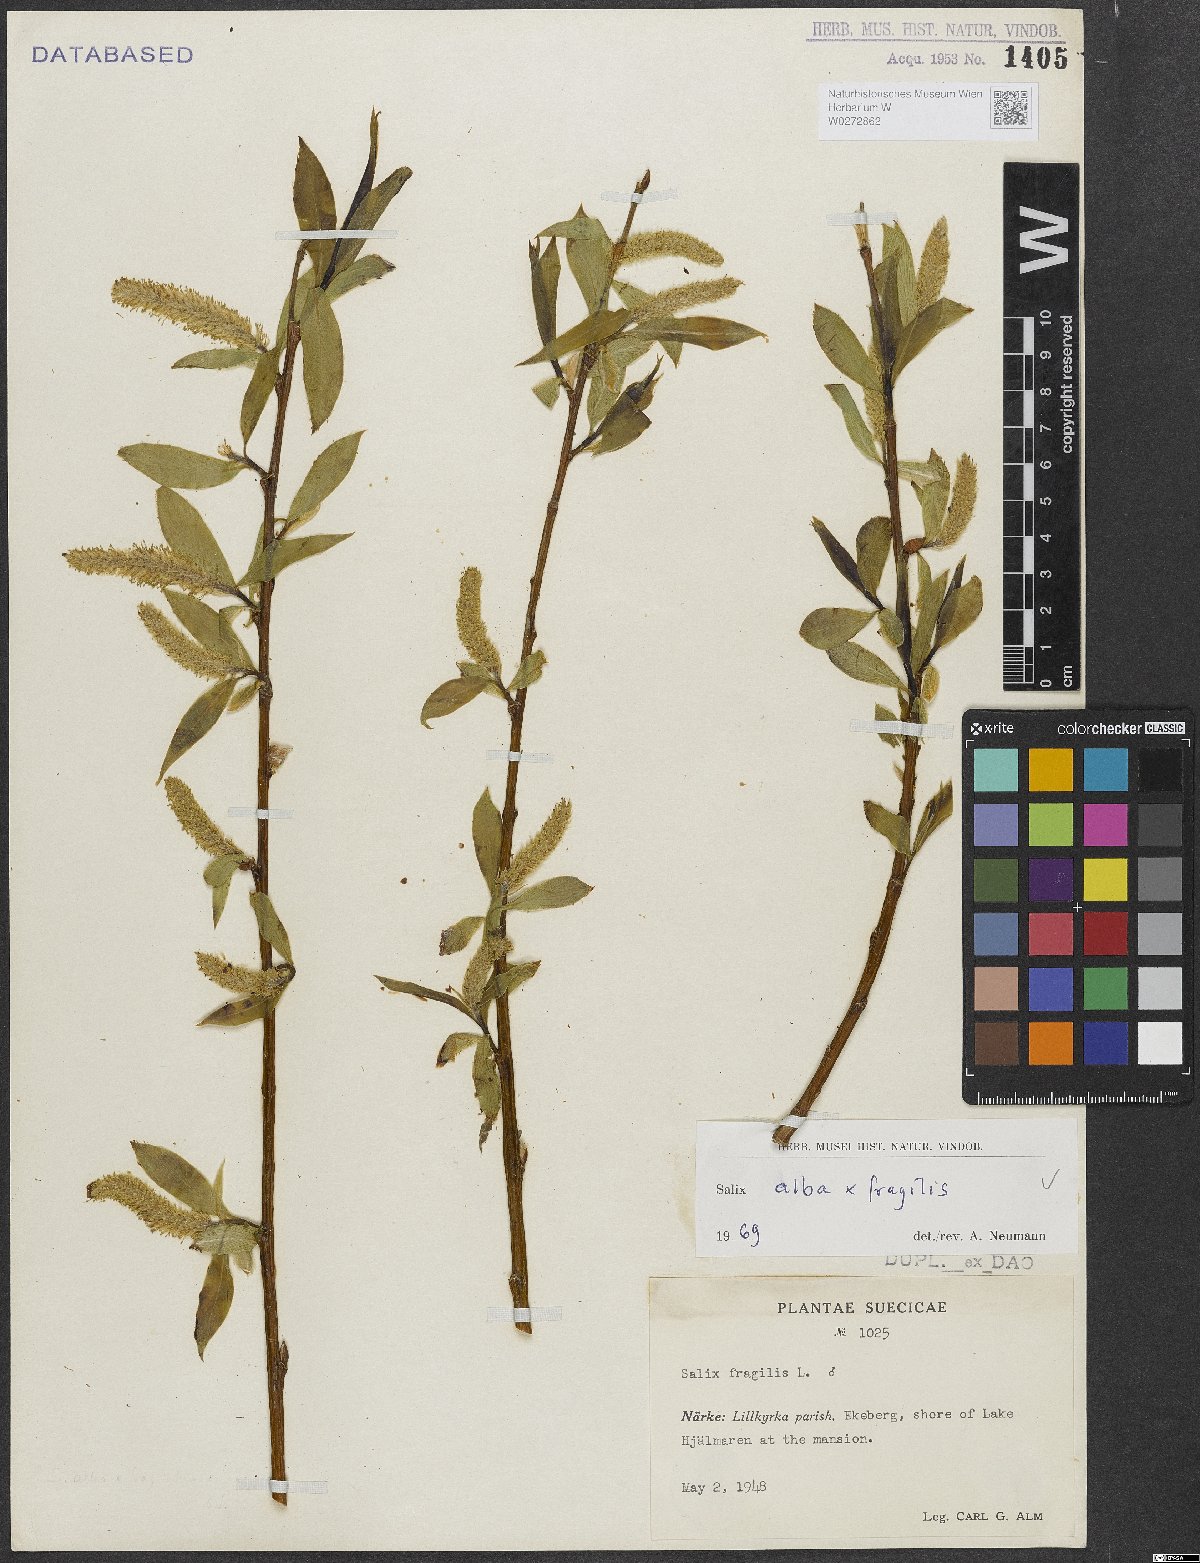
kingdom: Plantae
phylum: Tracheophyta
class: Magnoliopsida
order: Malpighiales
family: Salicaceae
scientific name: Salicaceae
